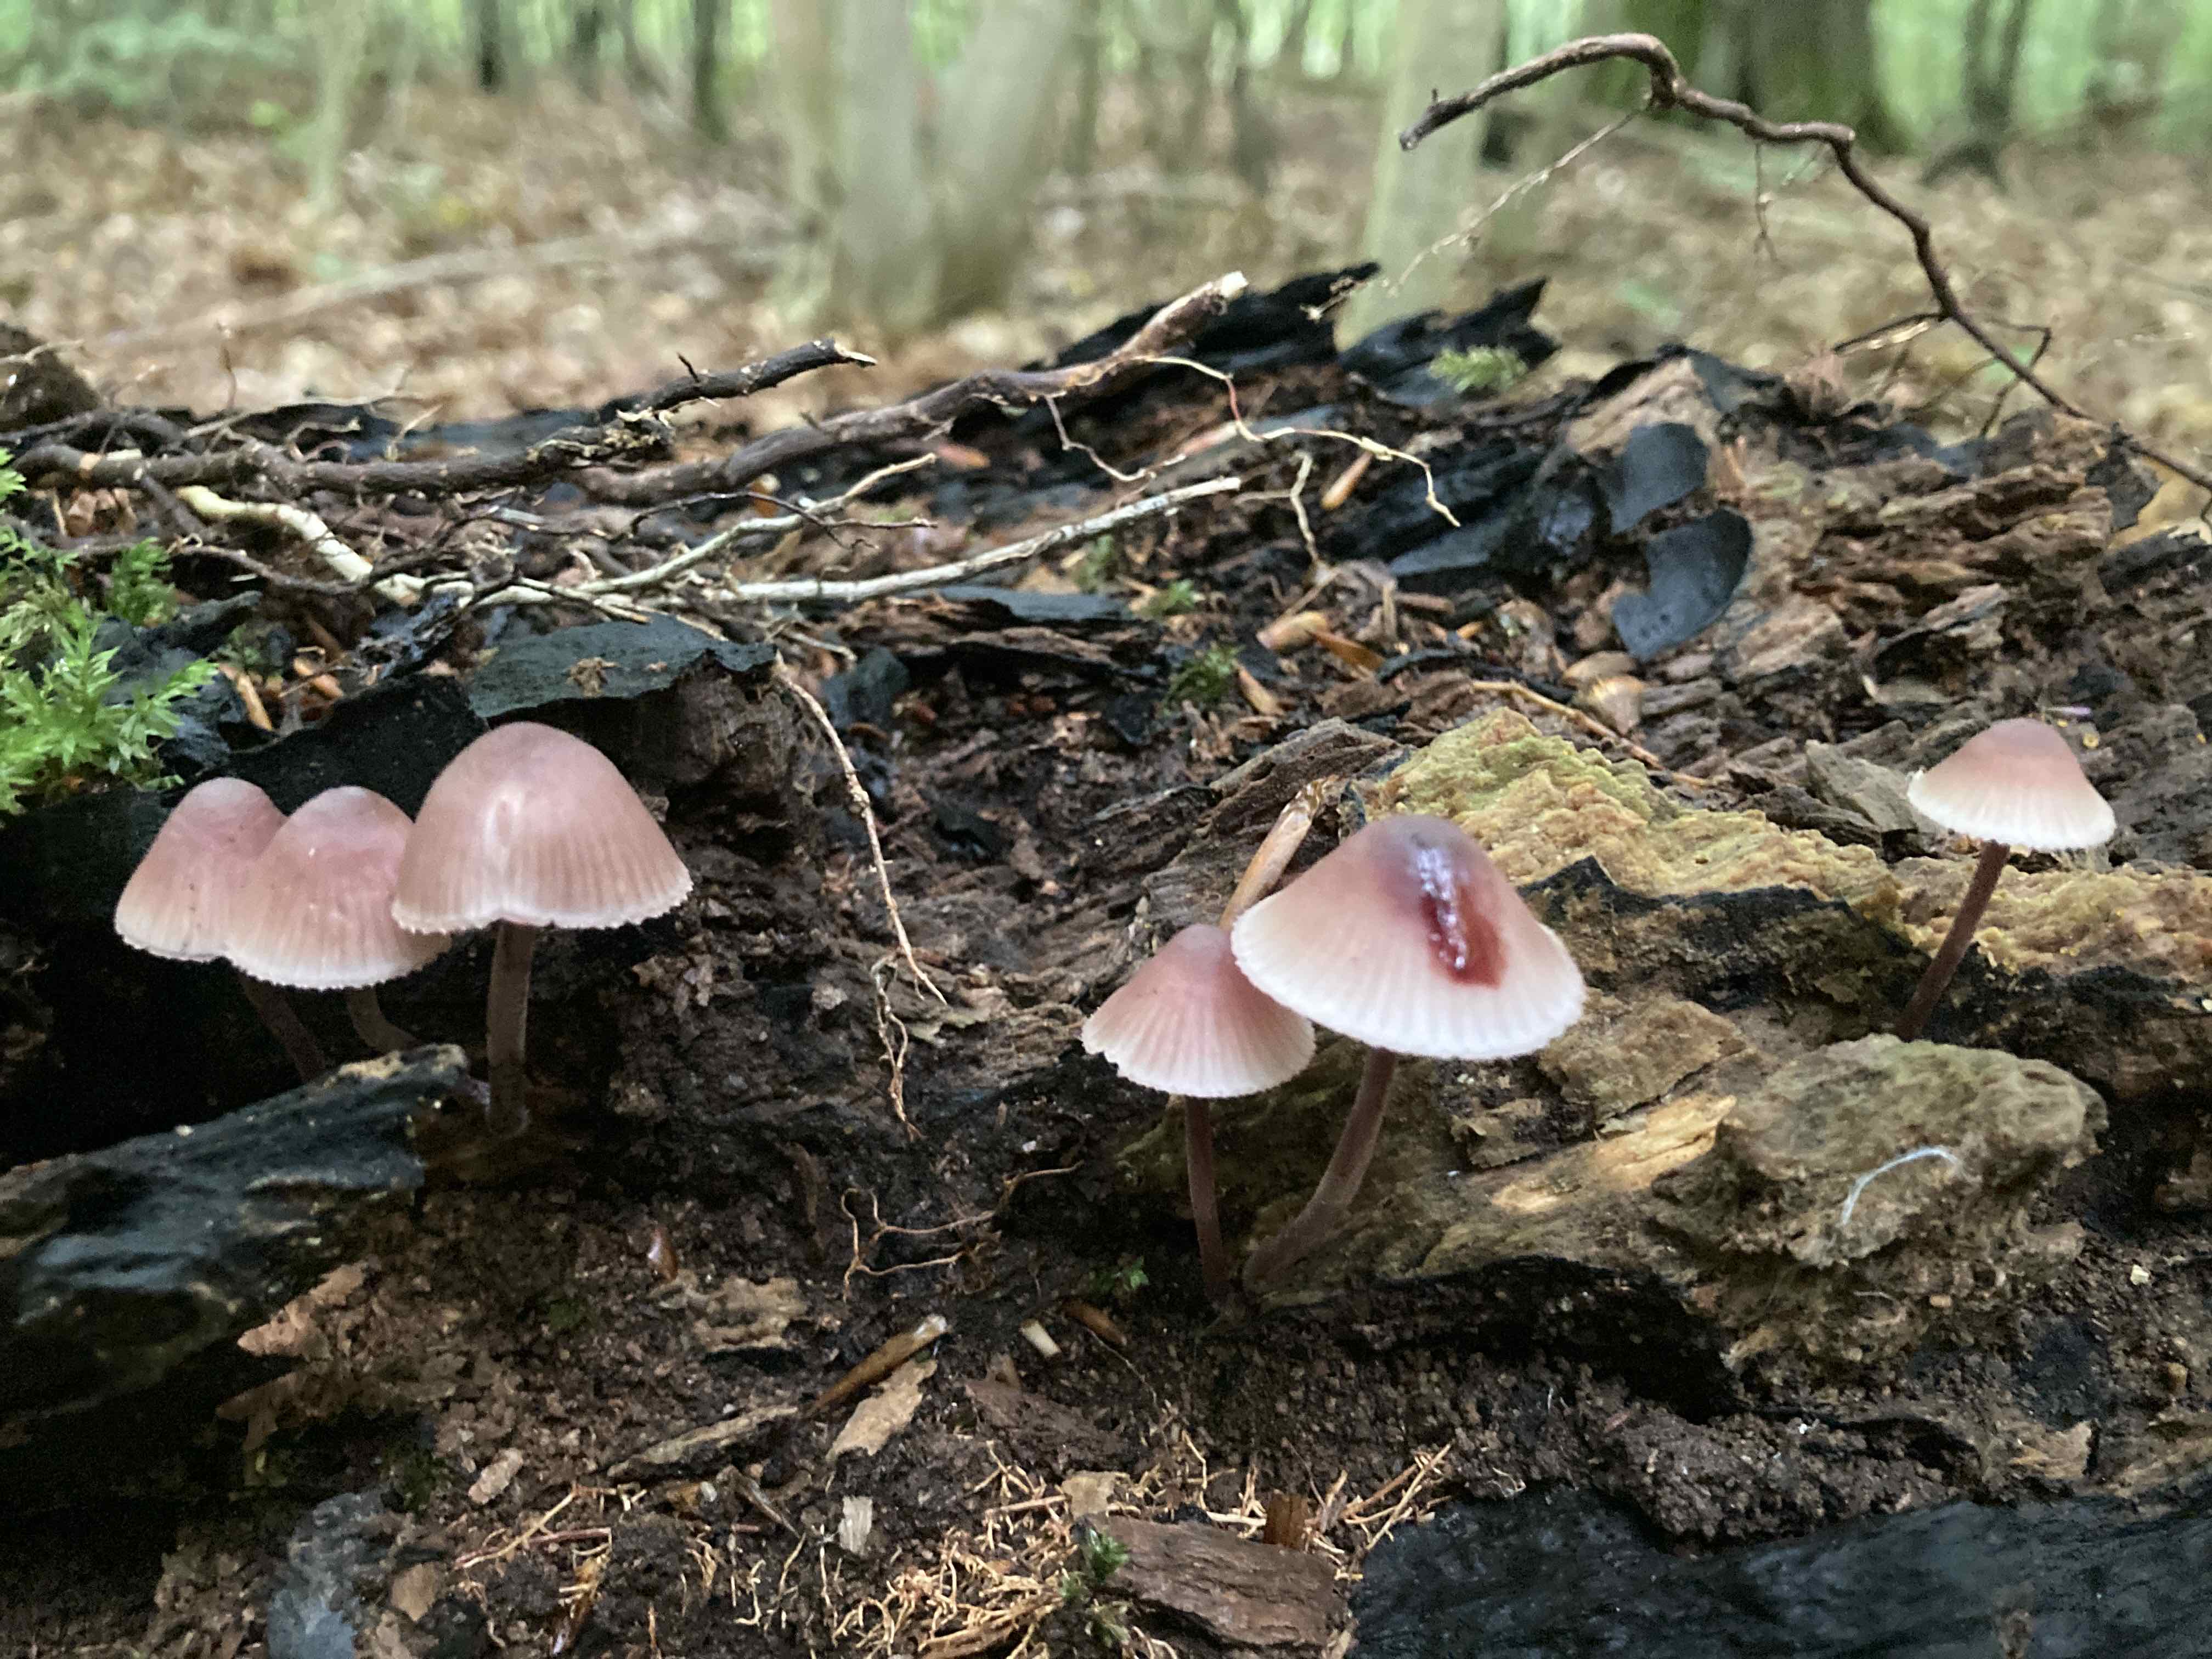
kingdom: Fungi
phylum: Basidiomycota
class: Agaricomycetes
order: Agaricales
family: Mycenaceae
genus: Mycena
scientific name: Mycena haematopus
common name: blødende huesvamp
